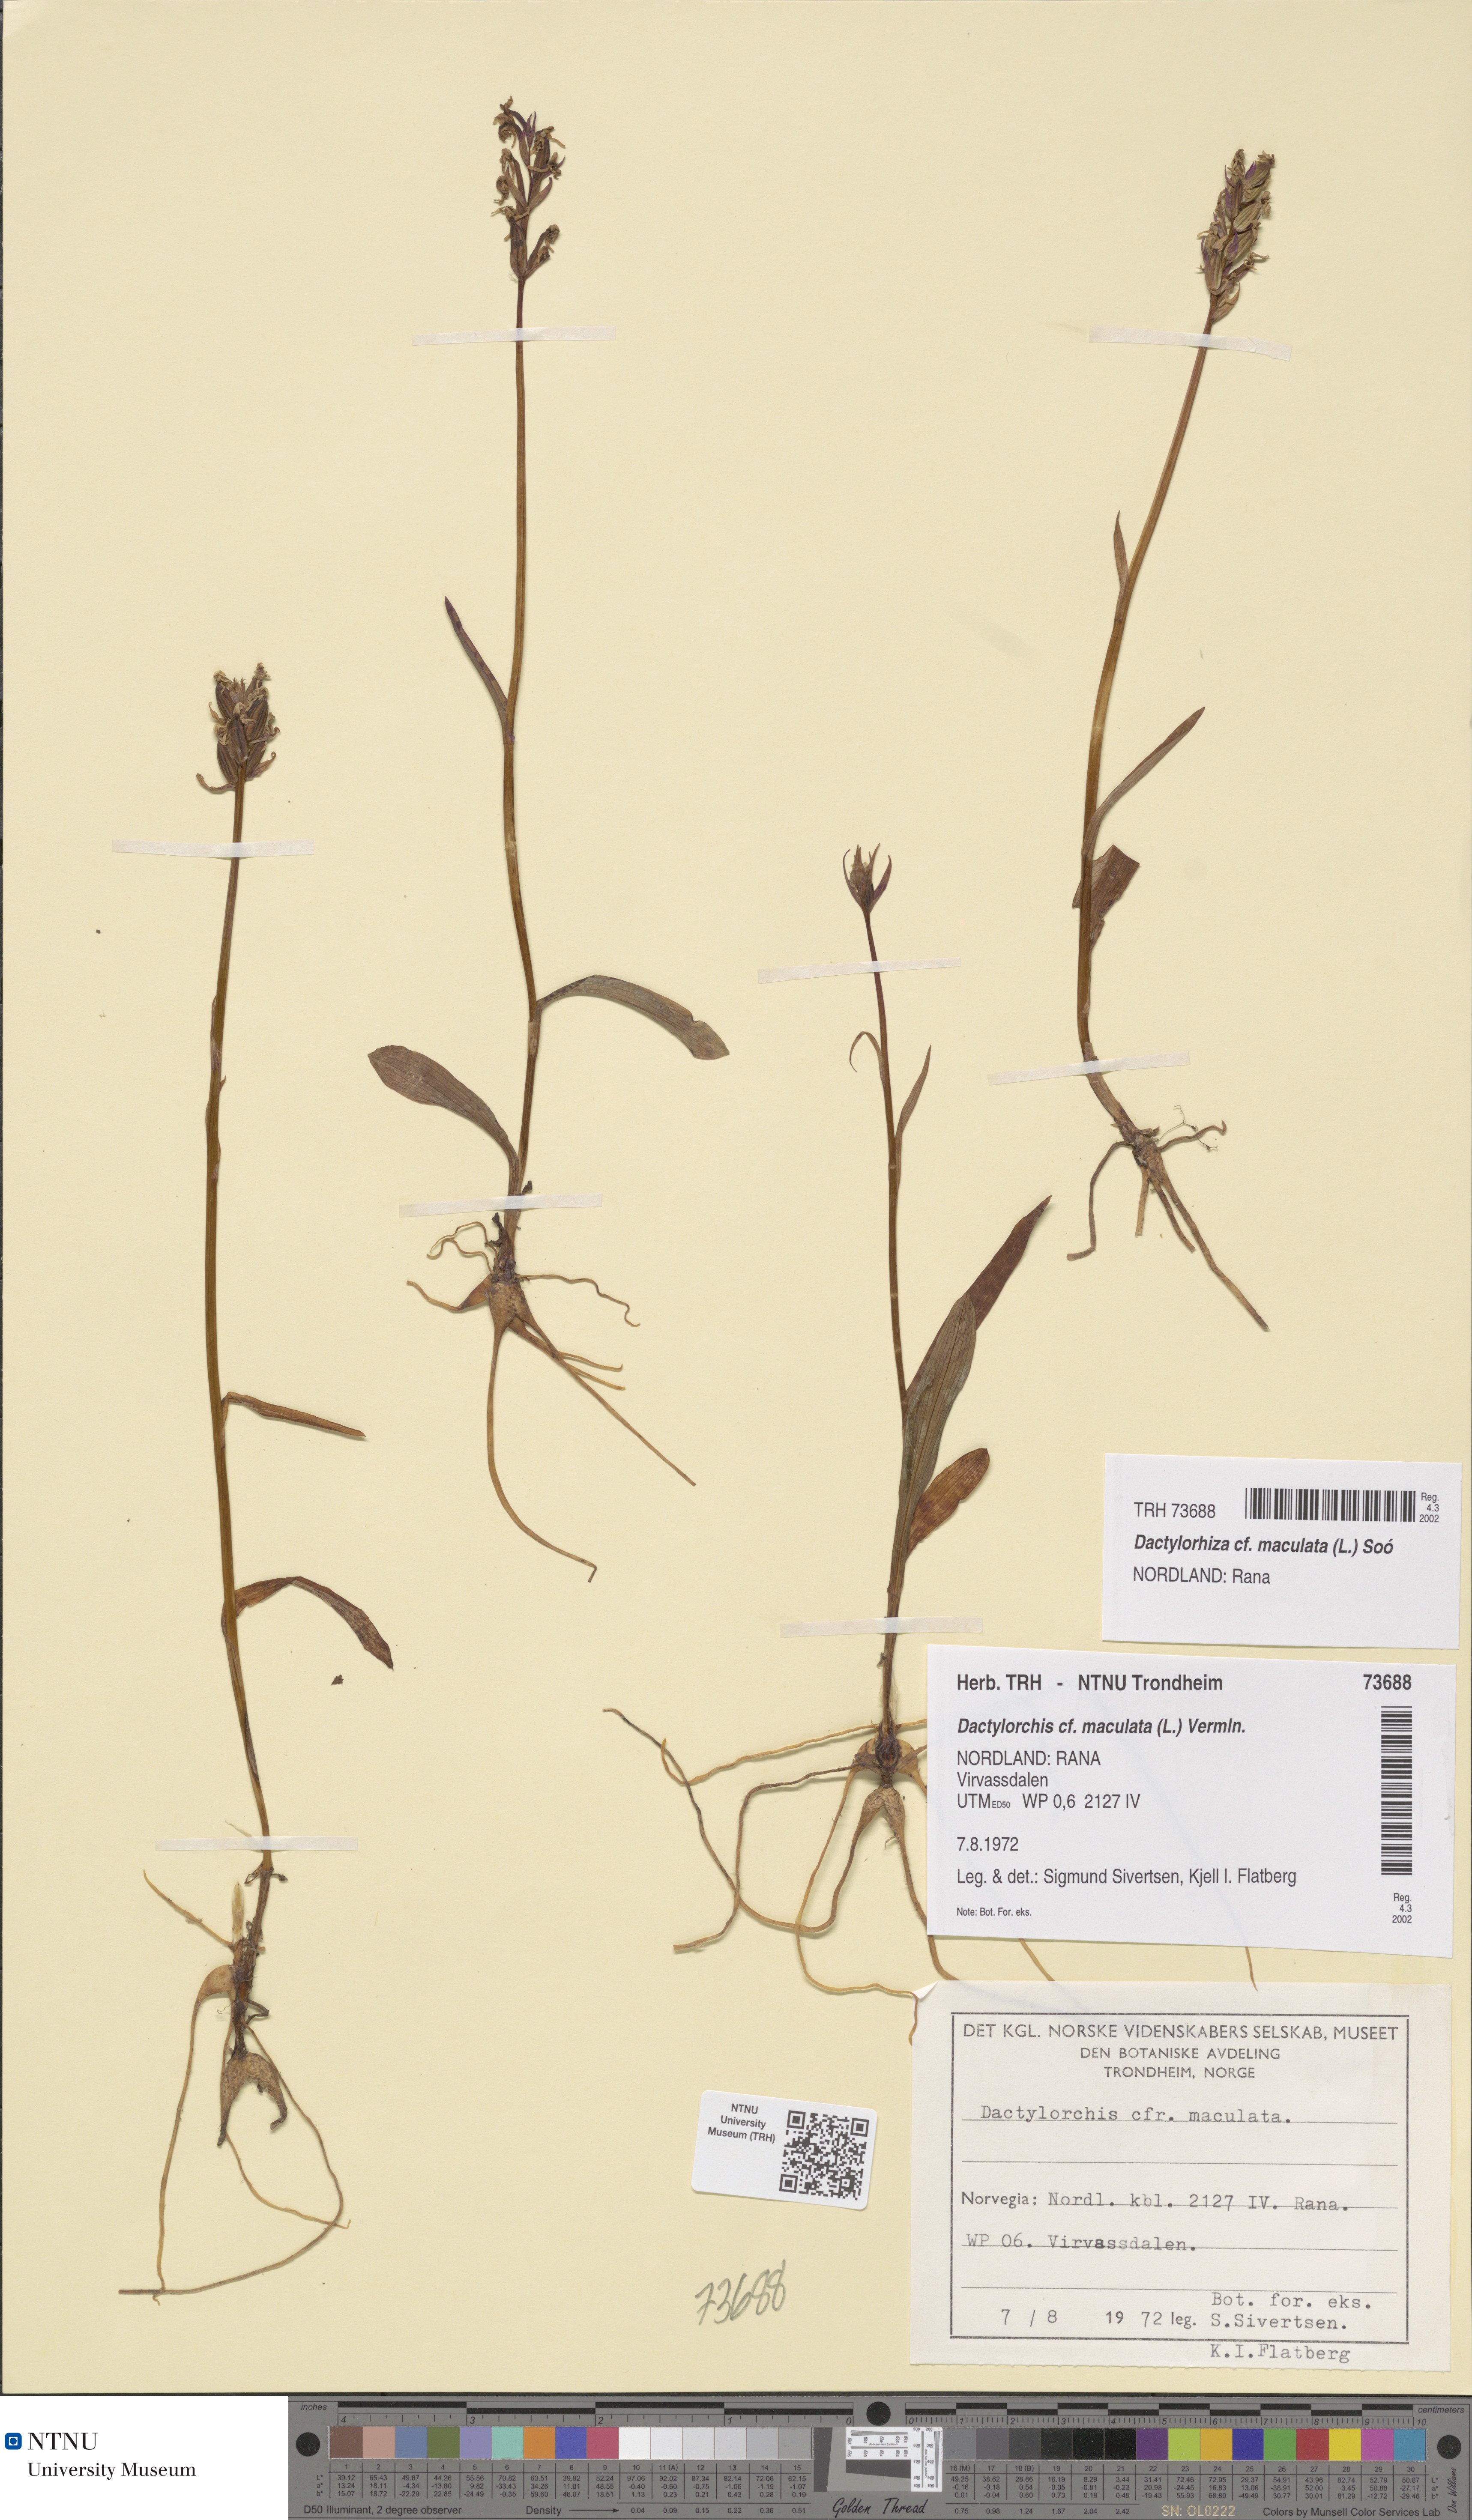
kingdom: Plantae
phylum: Tracheophyta
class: Liliopsida
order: Asparagales
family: Orchidaceae
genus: Dactylorhiza
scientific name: Dactylorhiza maculata
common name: Heath spotted-orchid
